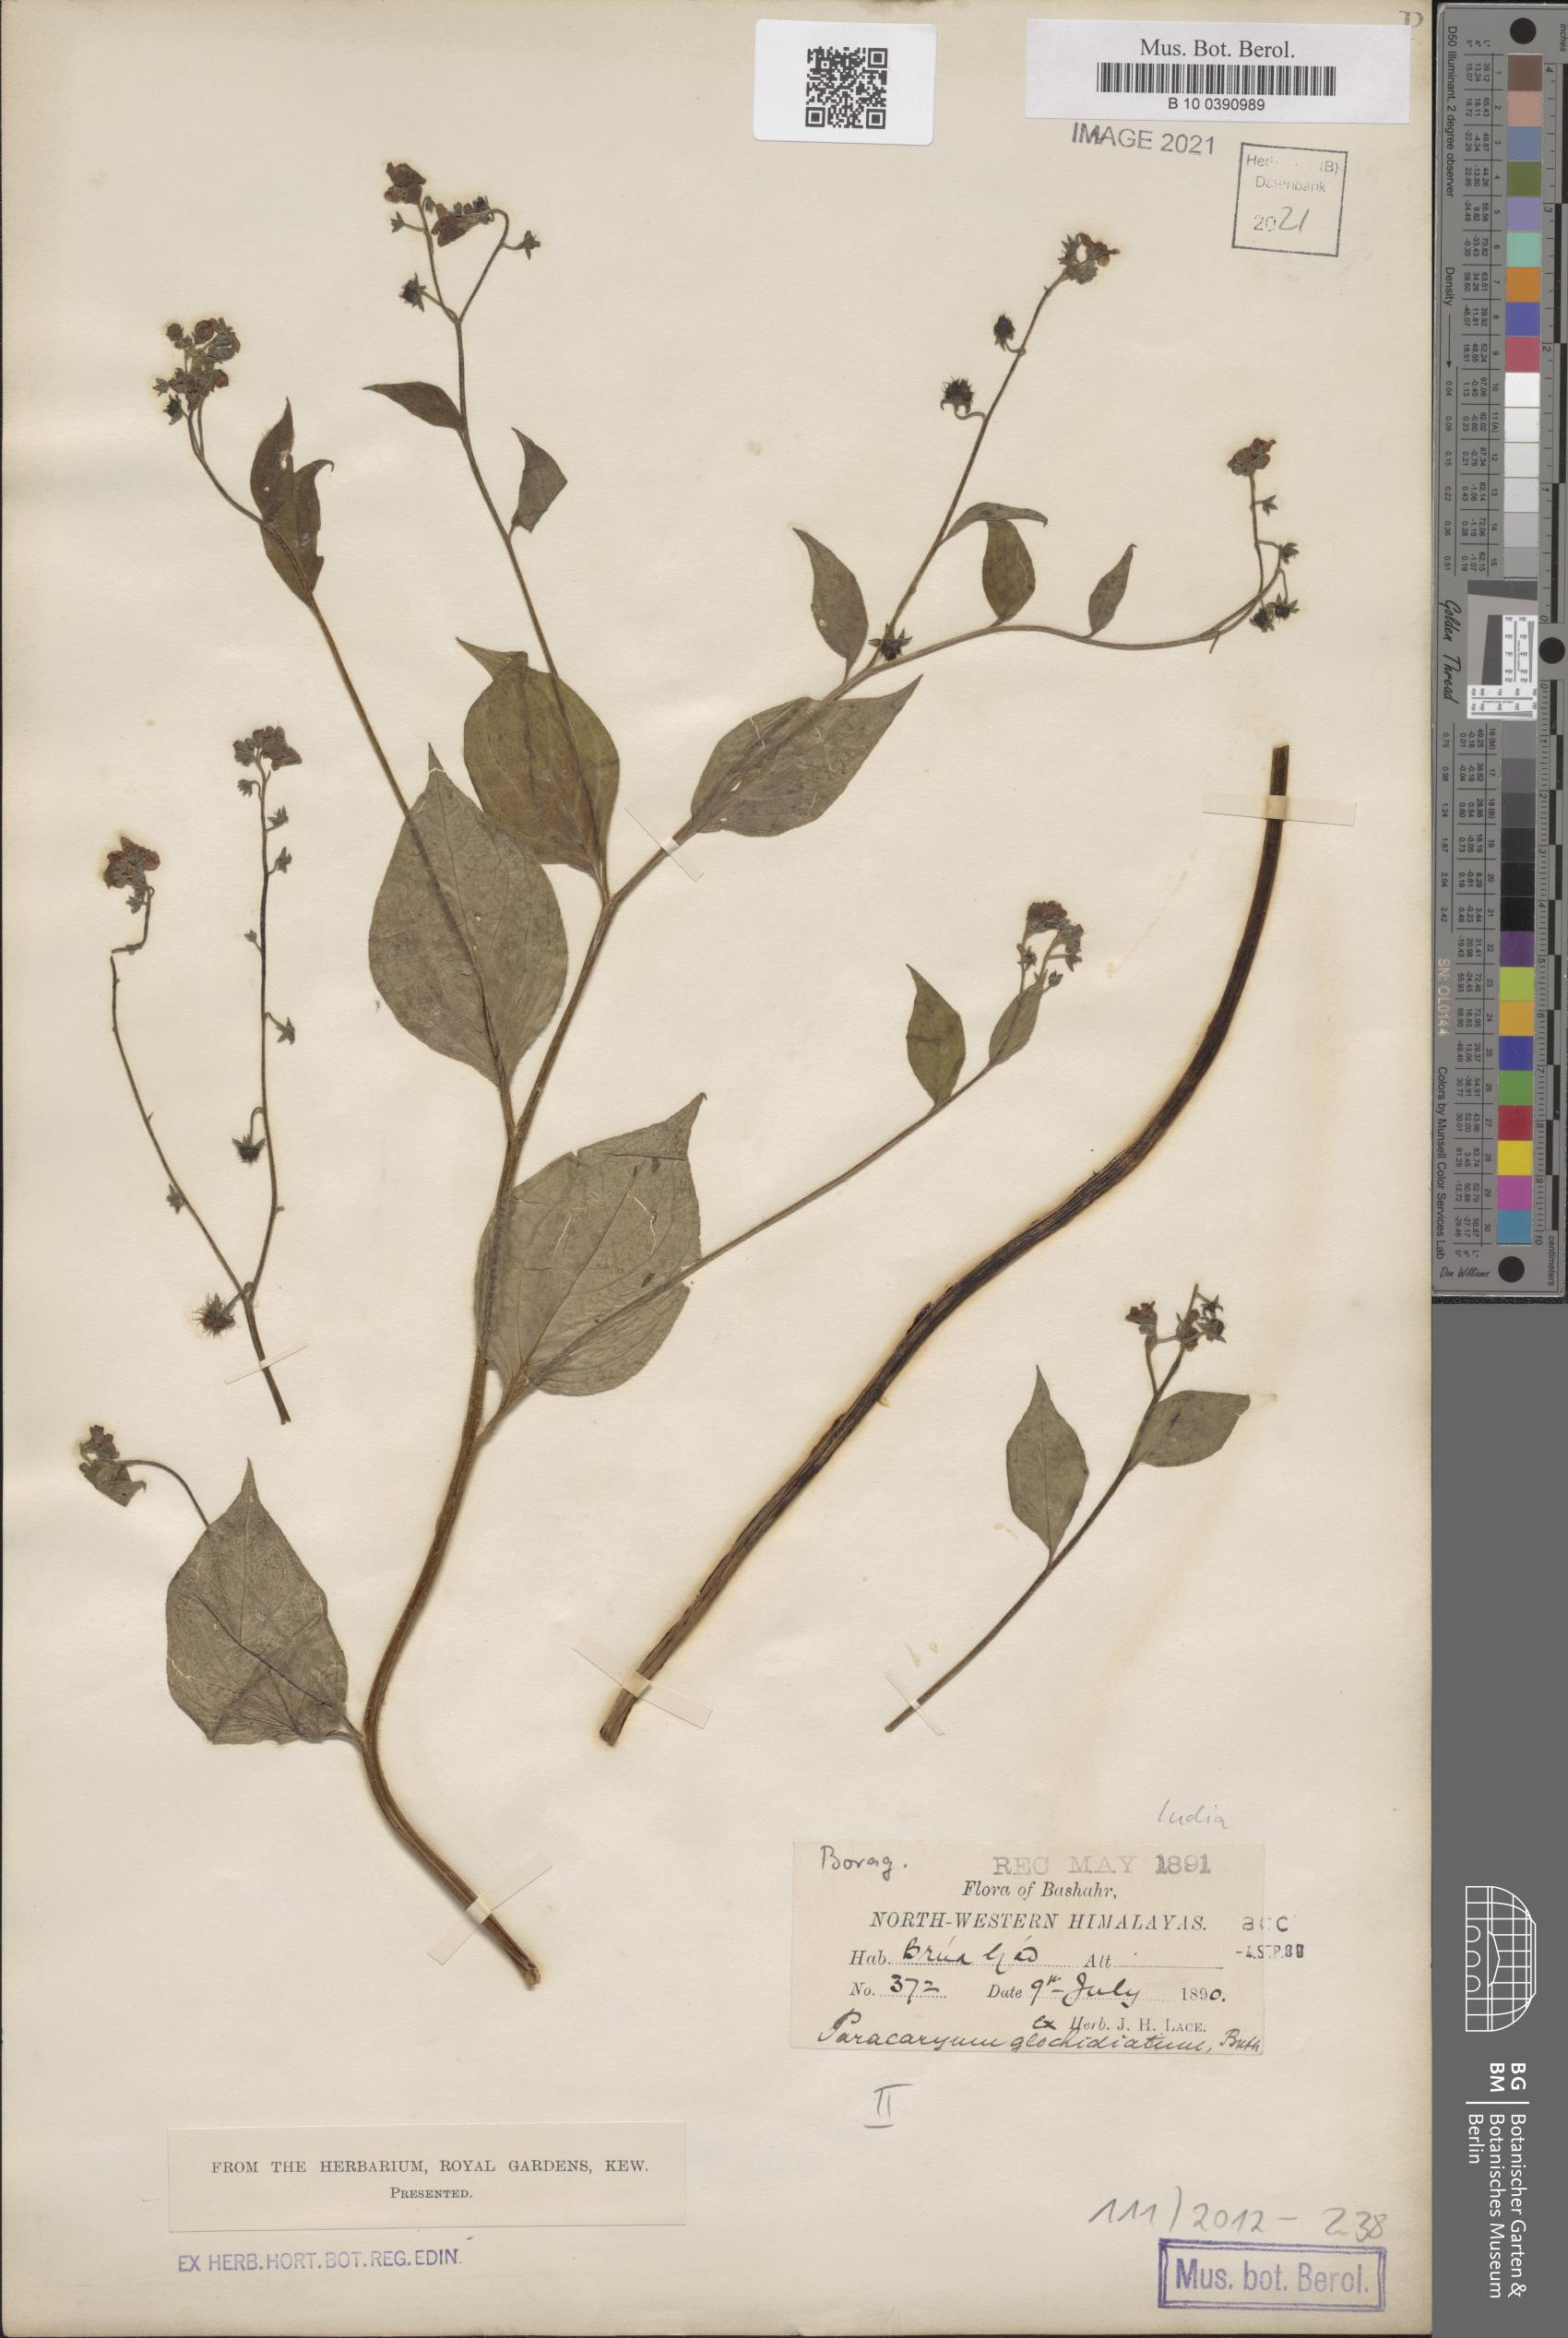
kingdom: Plantae
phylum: Tracheophyta
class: Magnoliopsida
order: Boraginales
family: Boraginaceae
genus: Microparacaryum
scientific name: Microparacaryum intermedium
